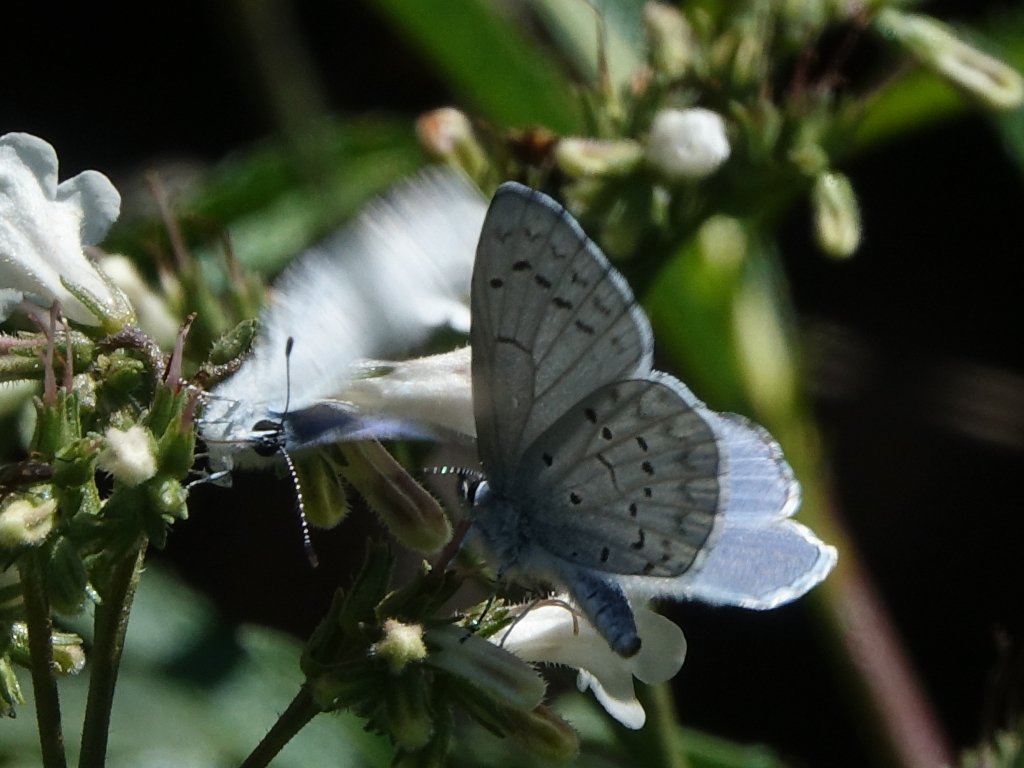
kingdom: Animalia
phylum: Arthropoda
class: Insecta
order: Lepidoptera
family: Lycaenidae
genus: Celastrina
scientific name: Celastrina ladon
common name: Spring Azure
